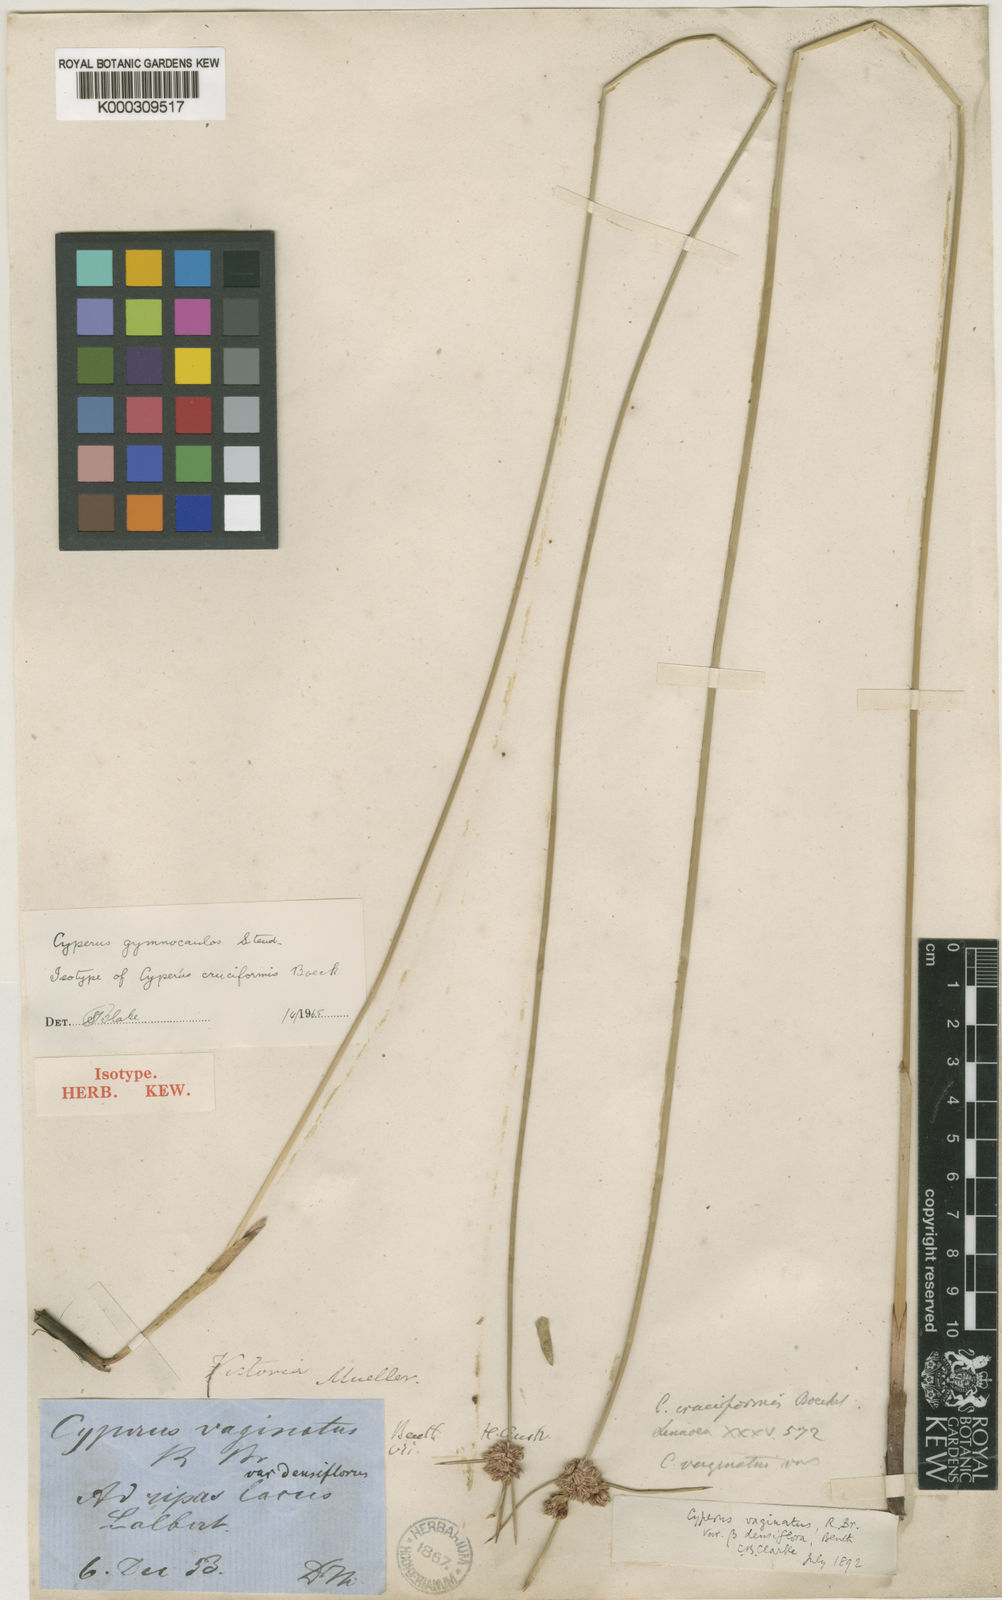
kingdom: Plantae
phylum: Tracheophyta
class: Liliopsida
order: Poales
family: Cyperaceae
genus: Cyperus
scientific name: Cyperus vaginatus
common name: Stiff-leaved flat-sedge
